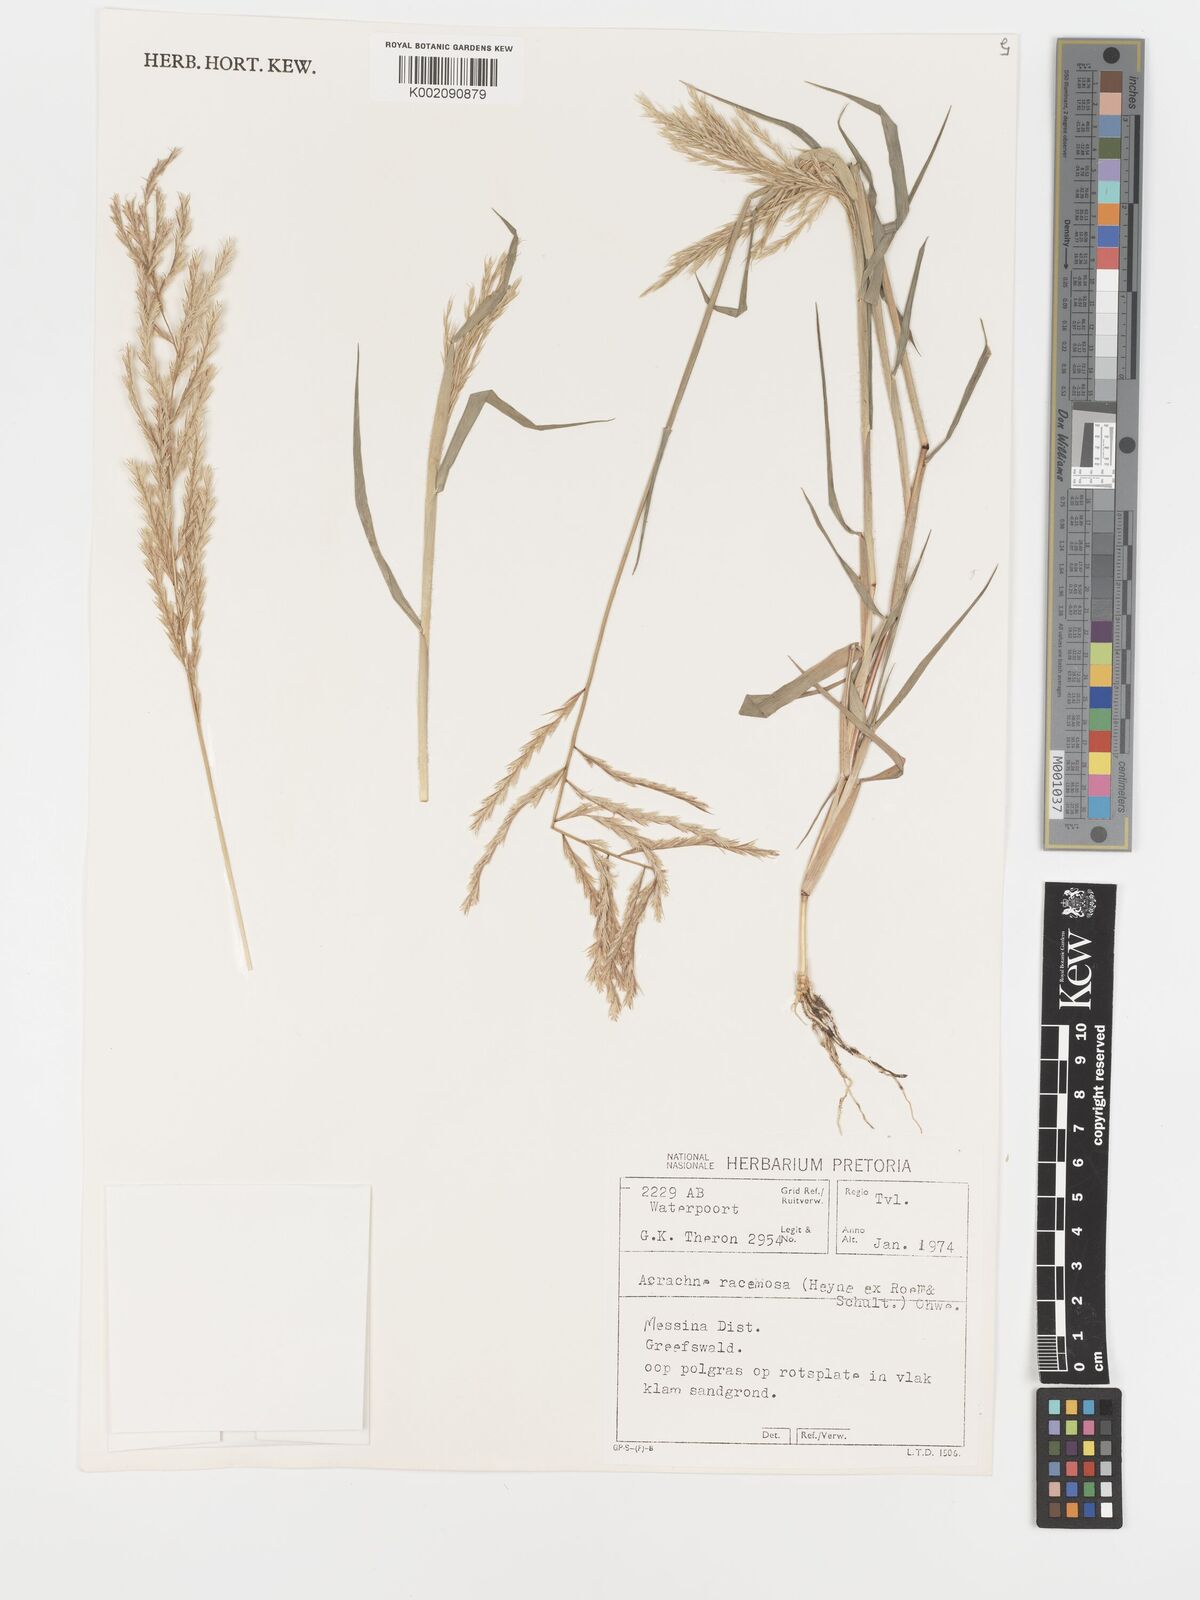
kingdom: Plantae
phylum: Tracheophyta
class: Liliopsida
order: Poales
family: Poaceae
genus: Acrachne
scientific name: Acrachne racemosa
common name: Goosegrass
